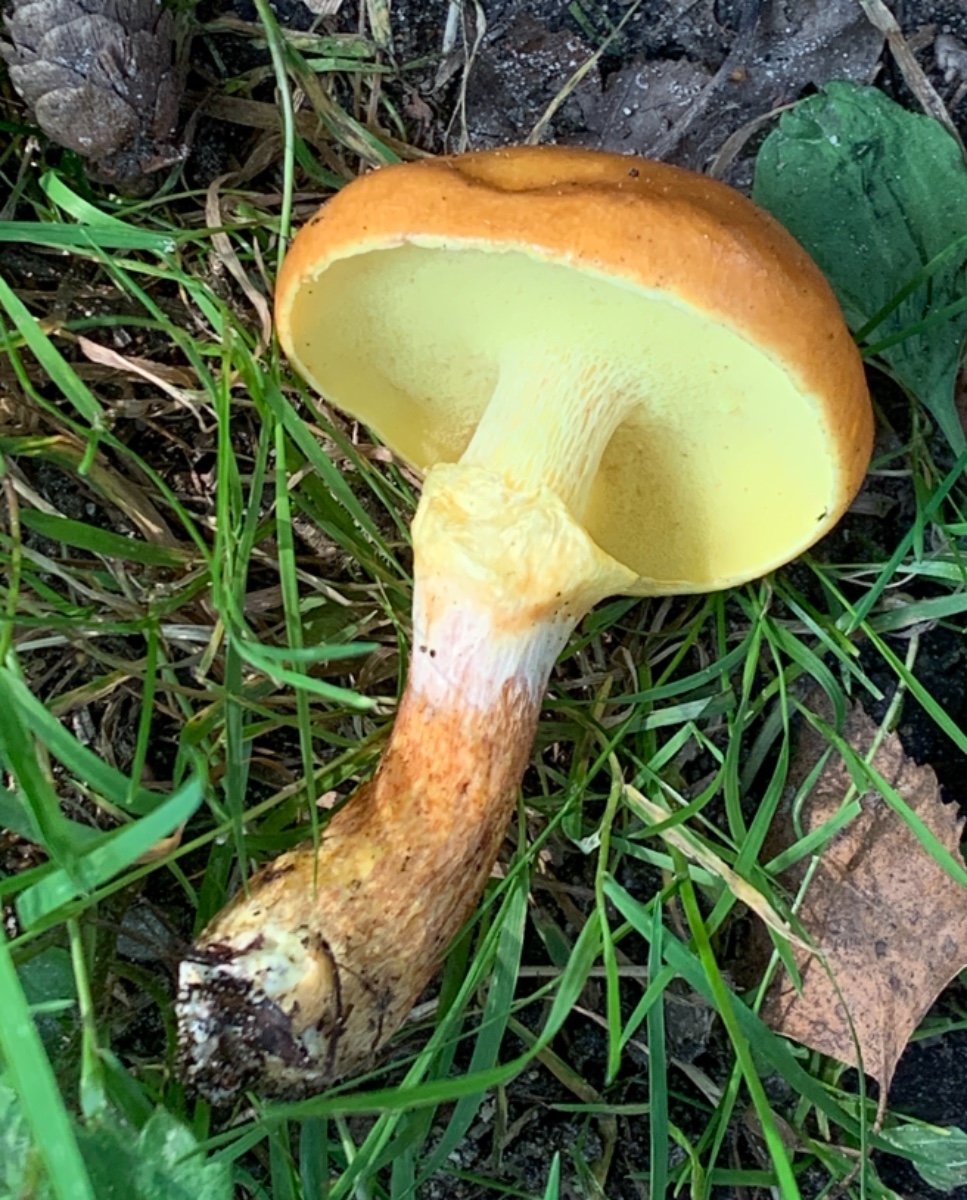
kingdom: Fungi
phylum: Basidiomycota
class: Agaricomycetes
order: Boletales
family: Suillaceae
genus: Suillus
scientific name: Suillus grevillei
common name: lærke-slimrørhat
